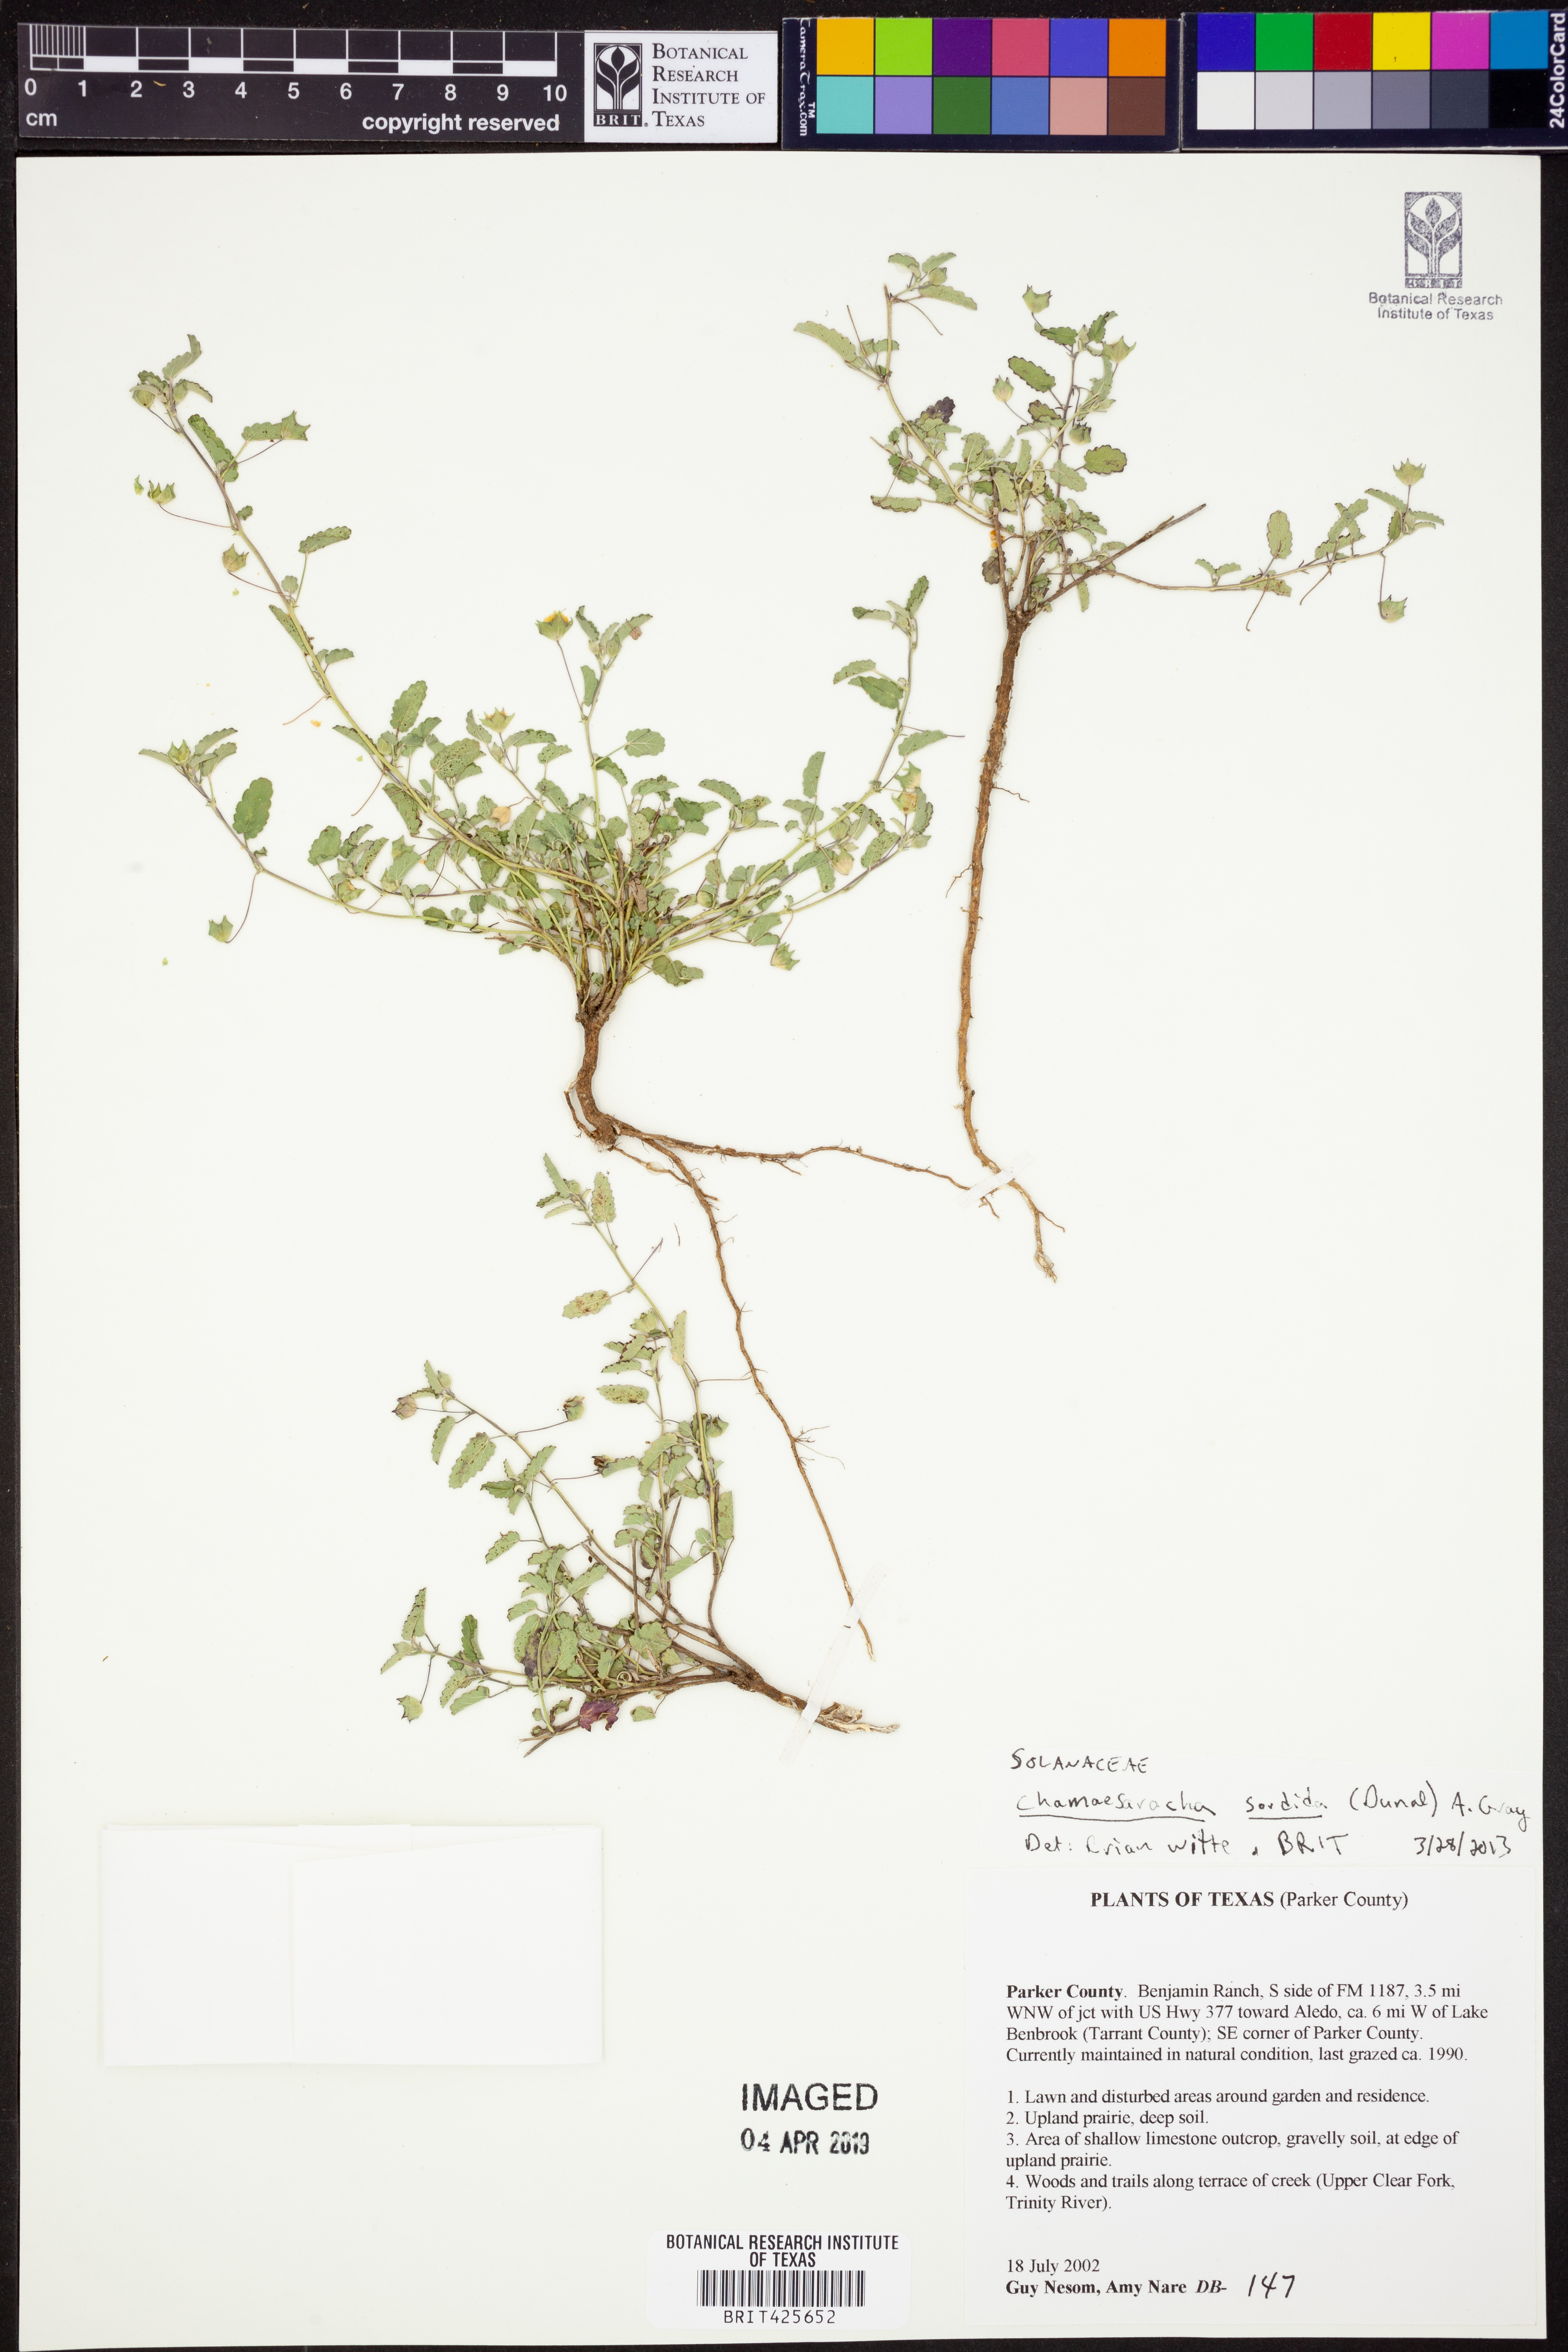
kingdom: Plantae
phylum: Tracheophyta
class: Magnoliopsida
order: Solanales
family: Solanaceae
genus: Chamaesaracha
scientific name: Chamaesaracha sordida
